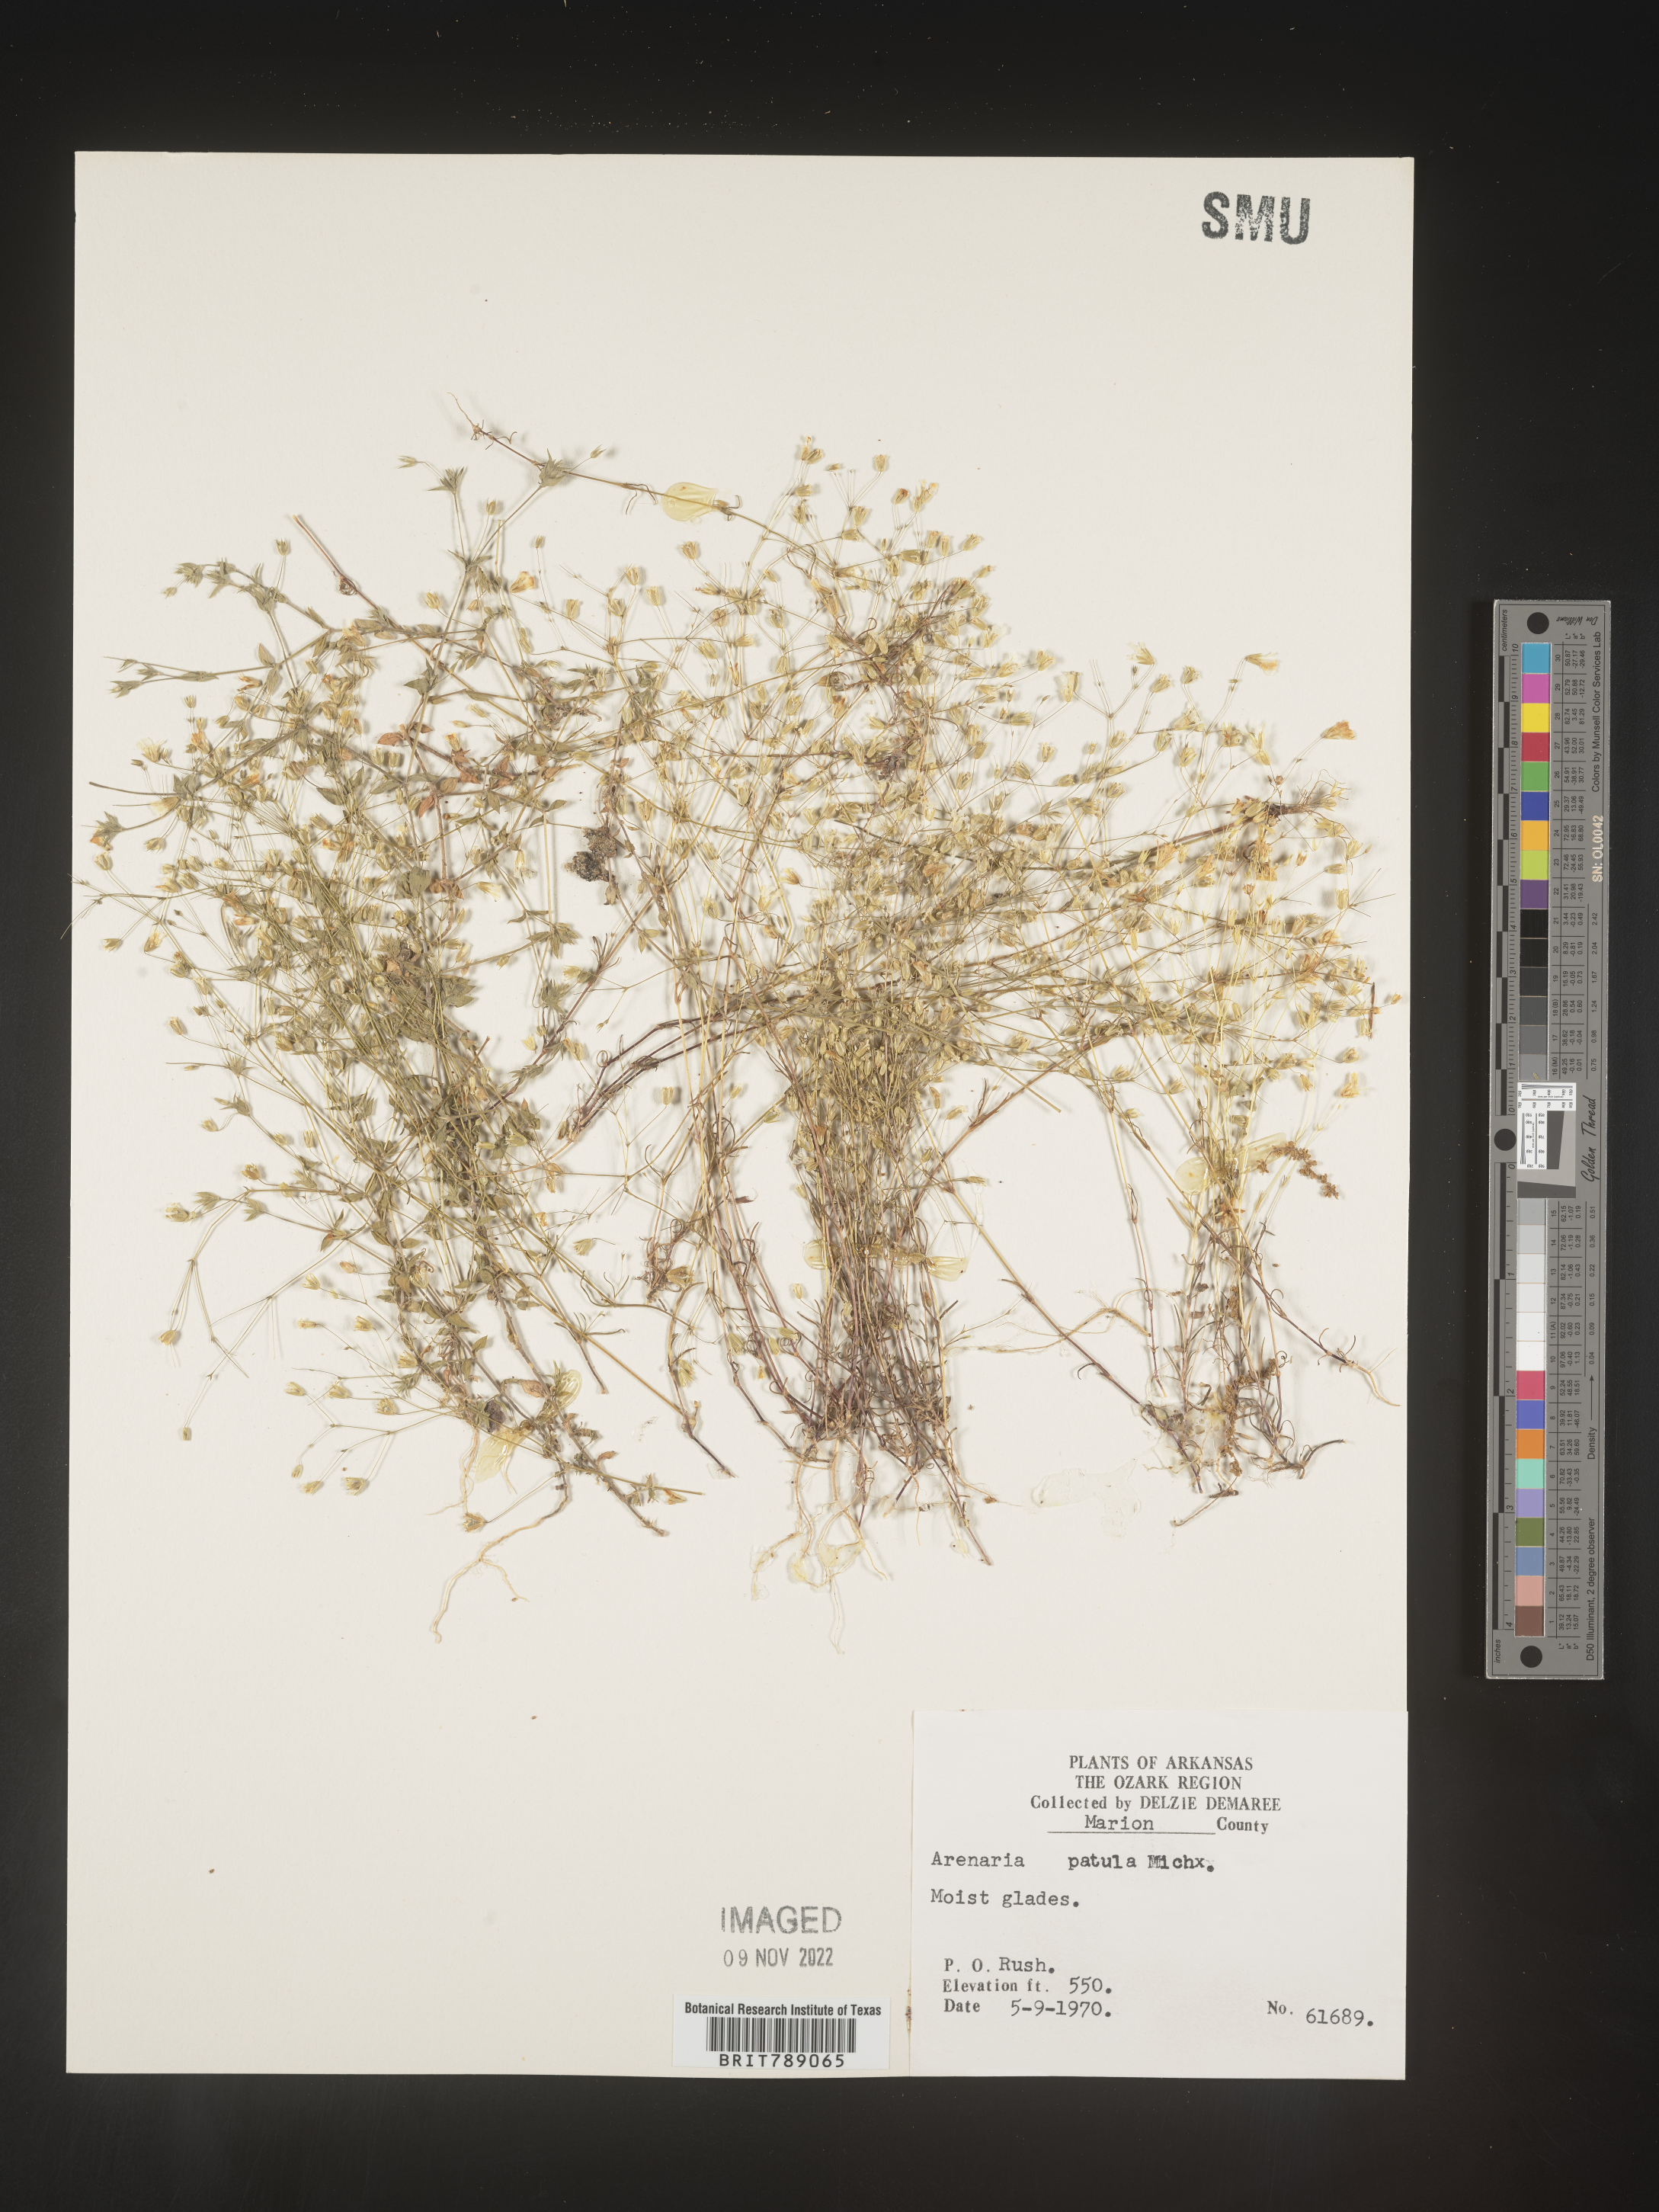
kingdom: Plantae
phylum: Tracheophyta
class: Magnoliopsida
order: Caryophyllales
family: Caryophyllaceae
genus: Mononeuria
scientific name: Mononeuria patula
